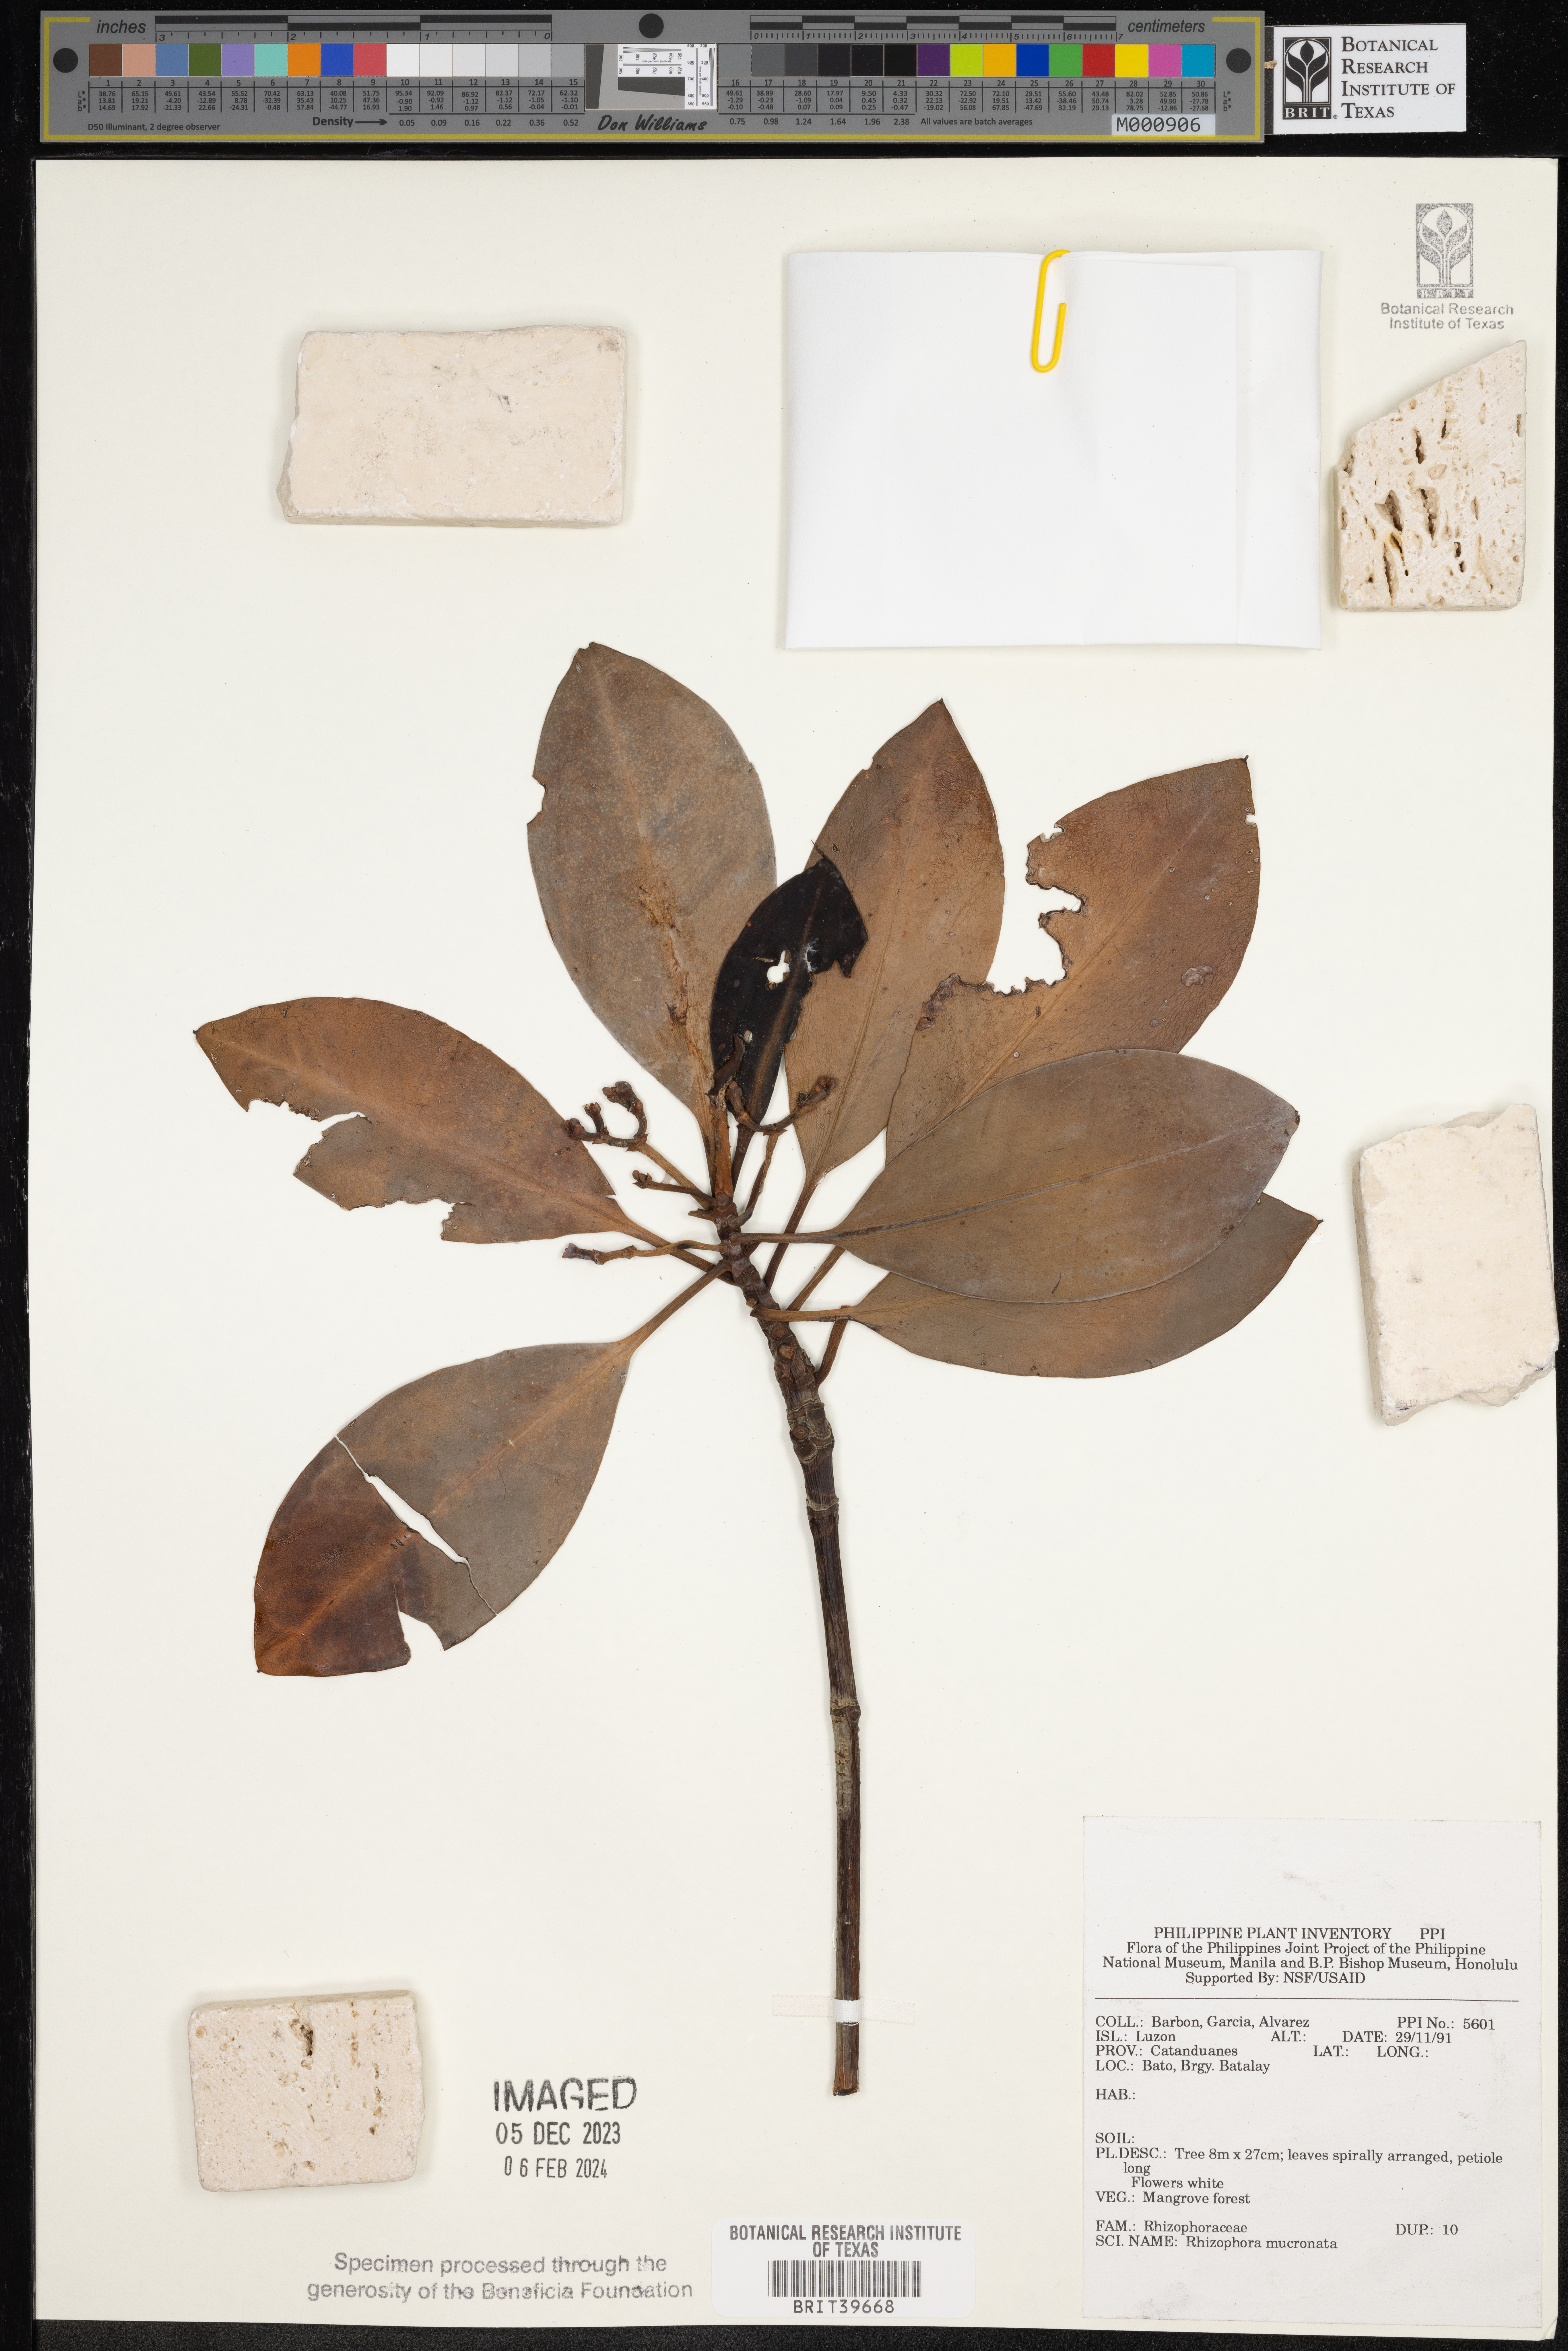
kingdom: Plantae
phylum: Tracheophyta
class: Magnoliopsida
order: Malpighiales
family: Rhizophoraceae
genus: Rhizophora
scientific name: Rhizophora mucronata
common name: Loop-root mangrove
